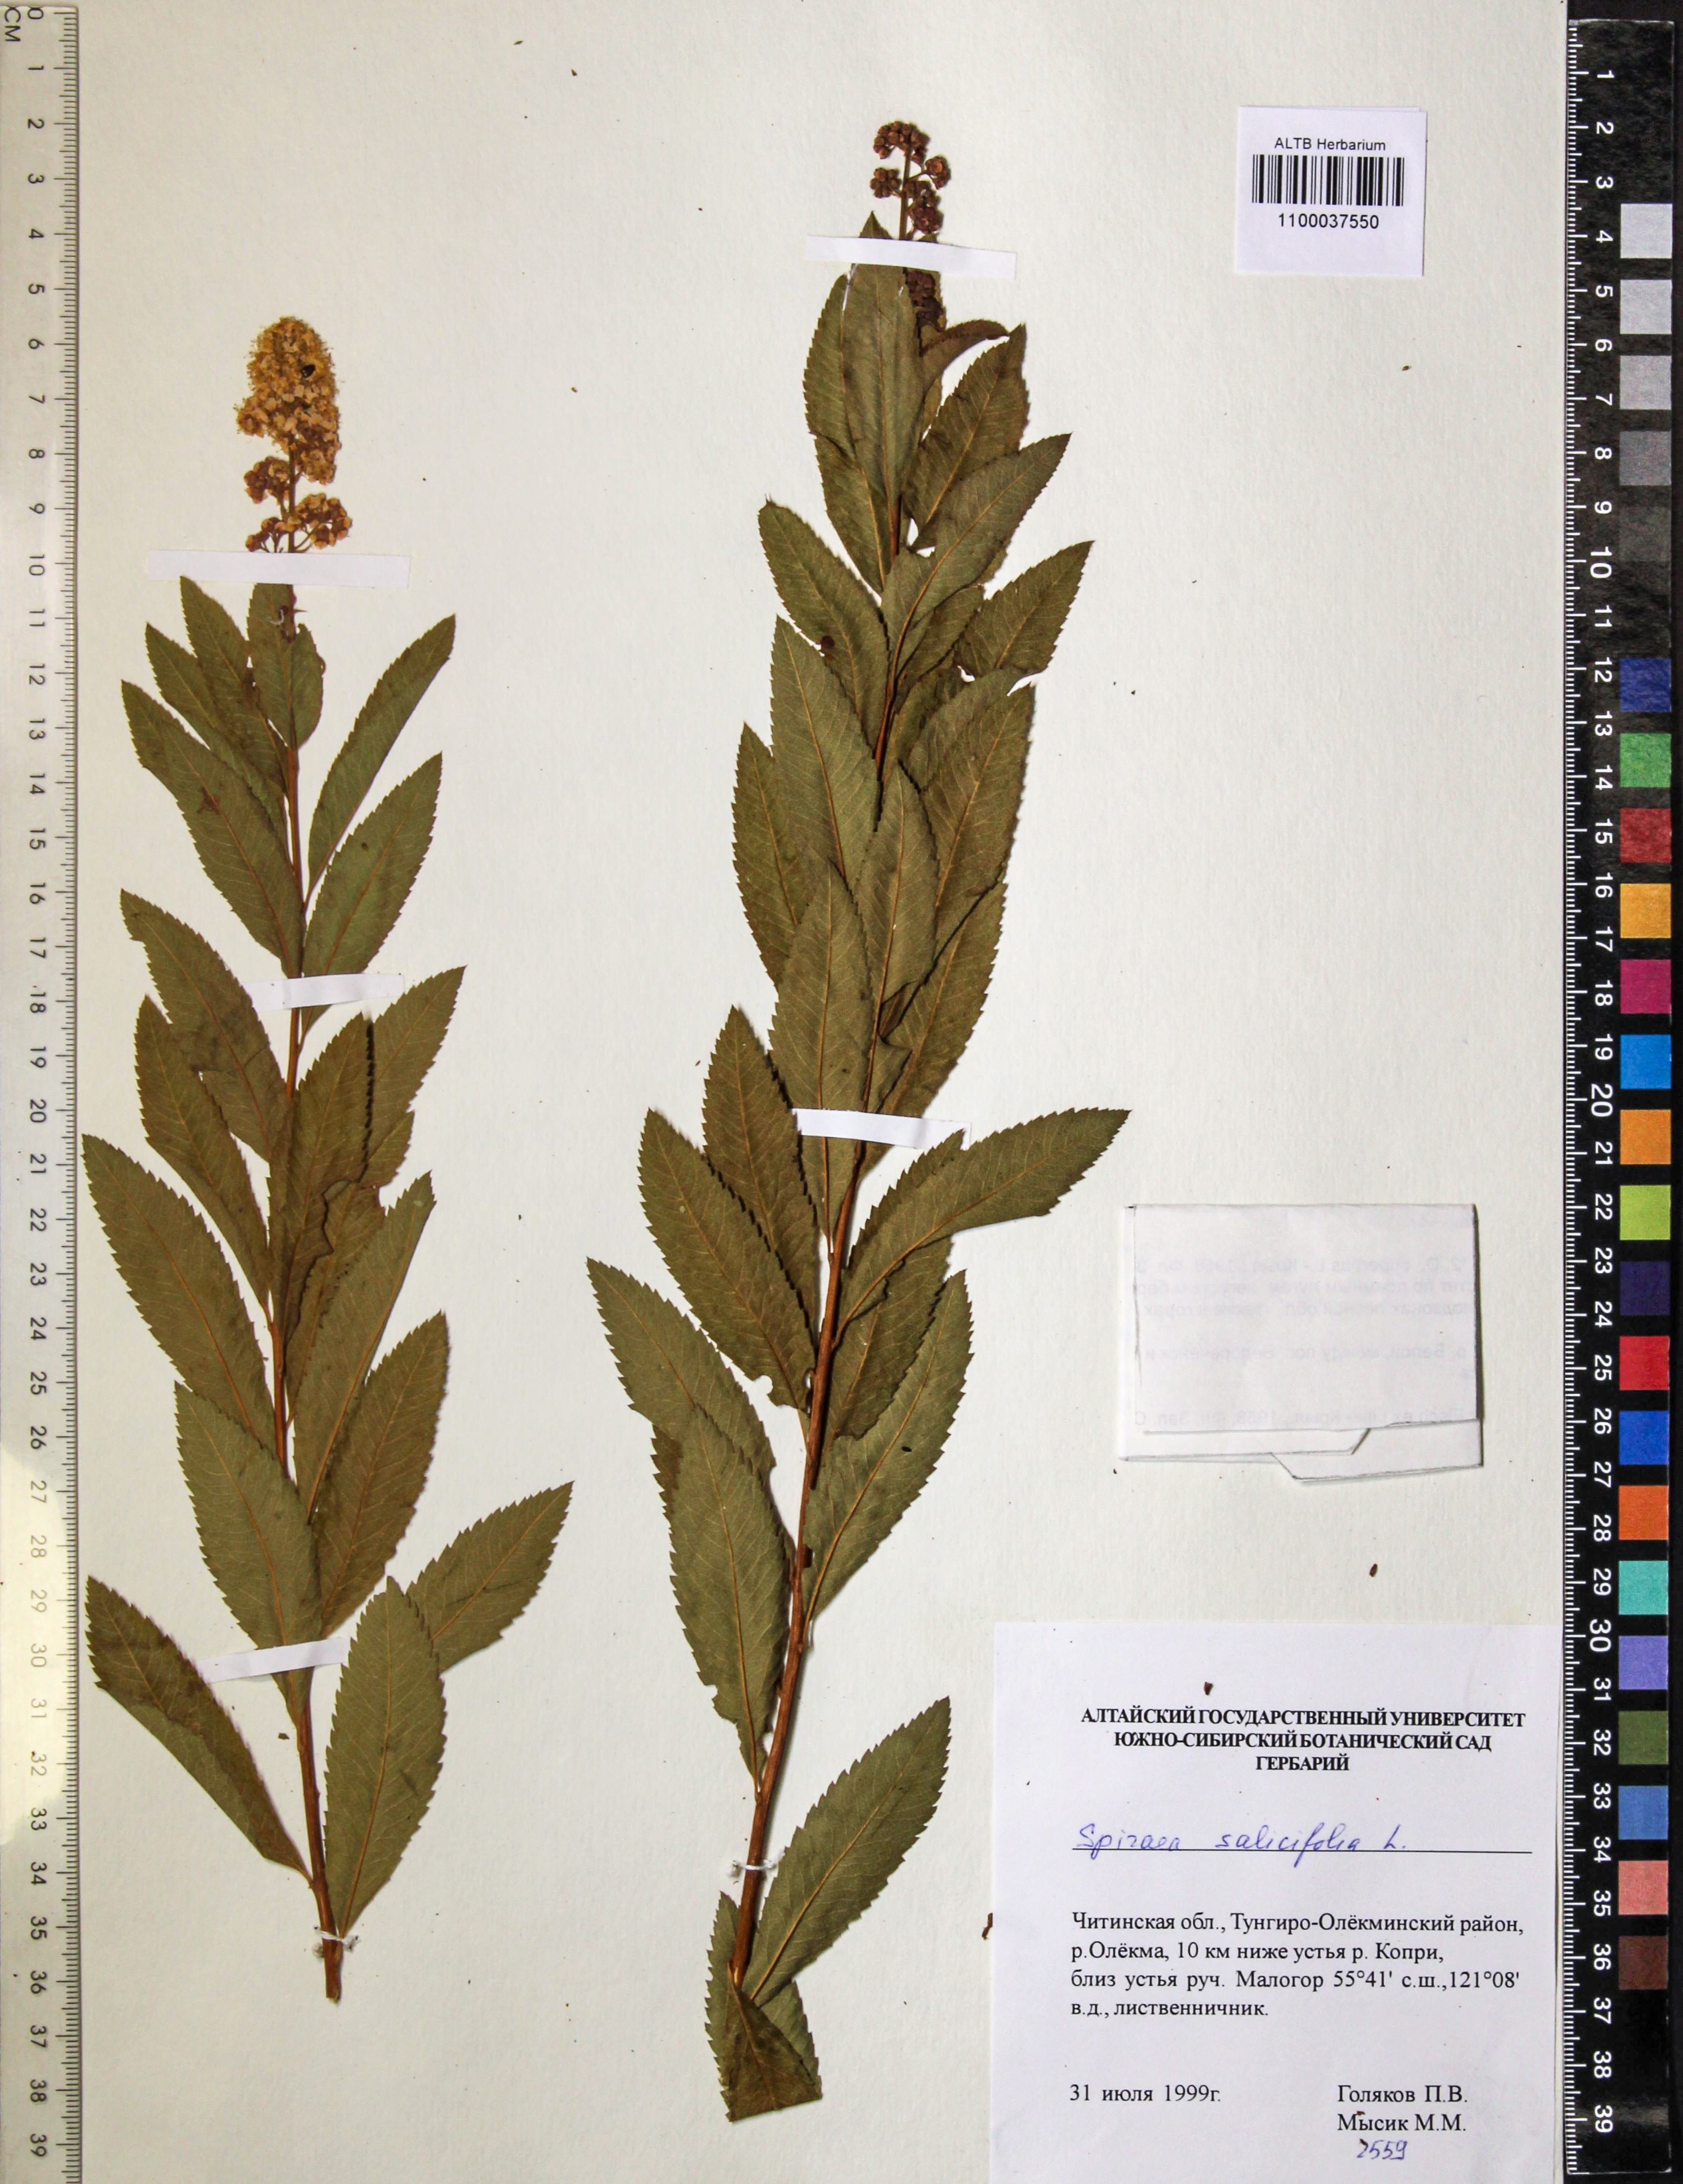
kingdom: Plantae
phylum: Tracheophyta
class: Magnoliopsida
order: Rosales
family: Rosaceae
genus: Spiraea
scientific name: Spiraea salicifolia
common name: Bridewort
